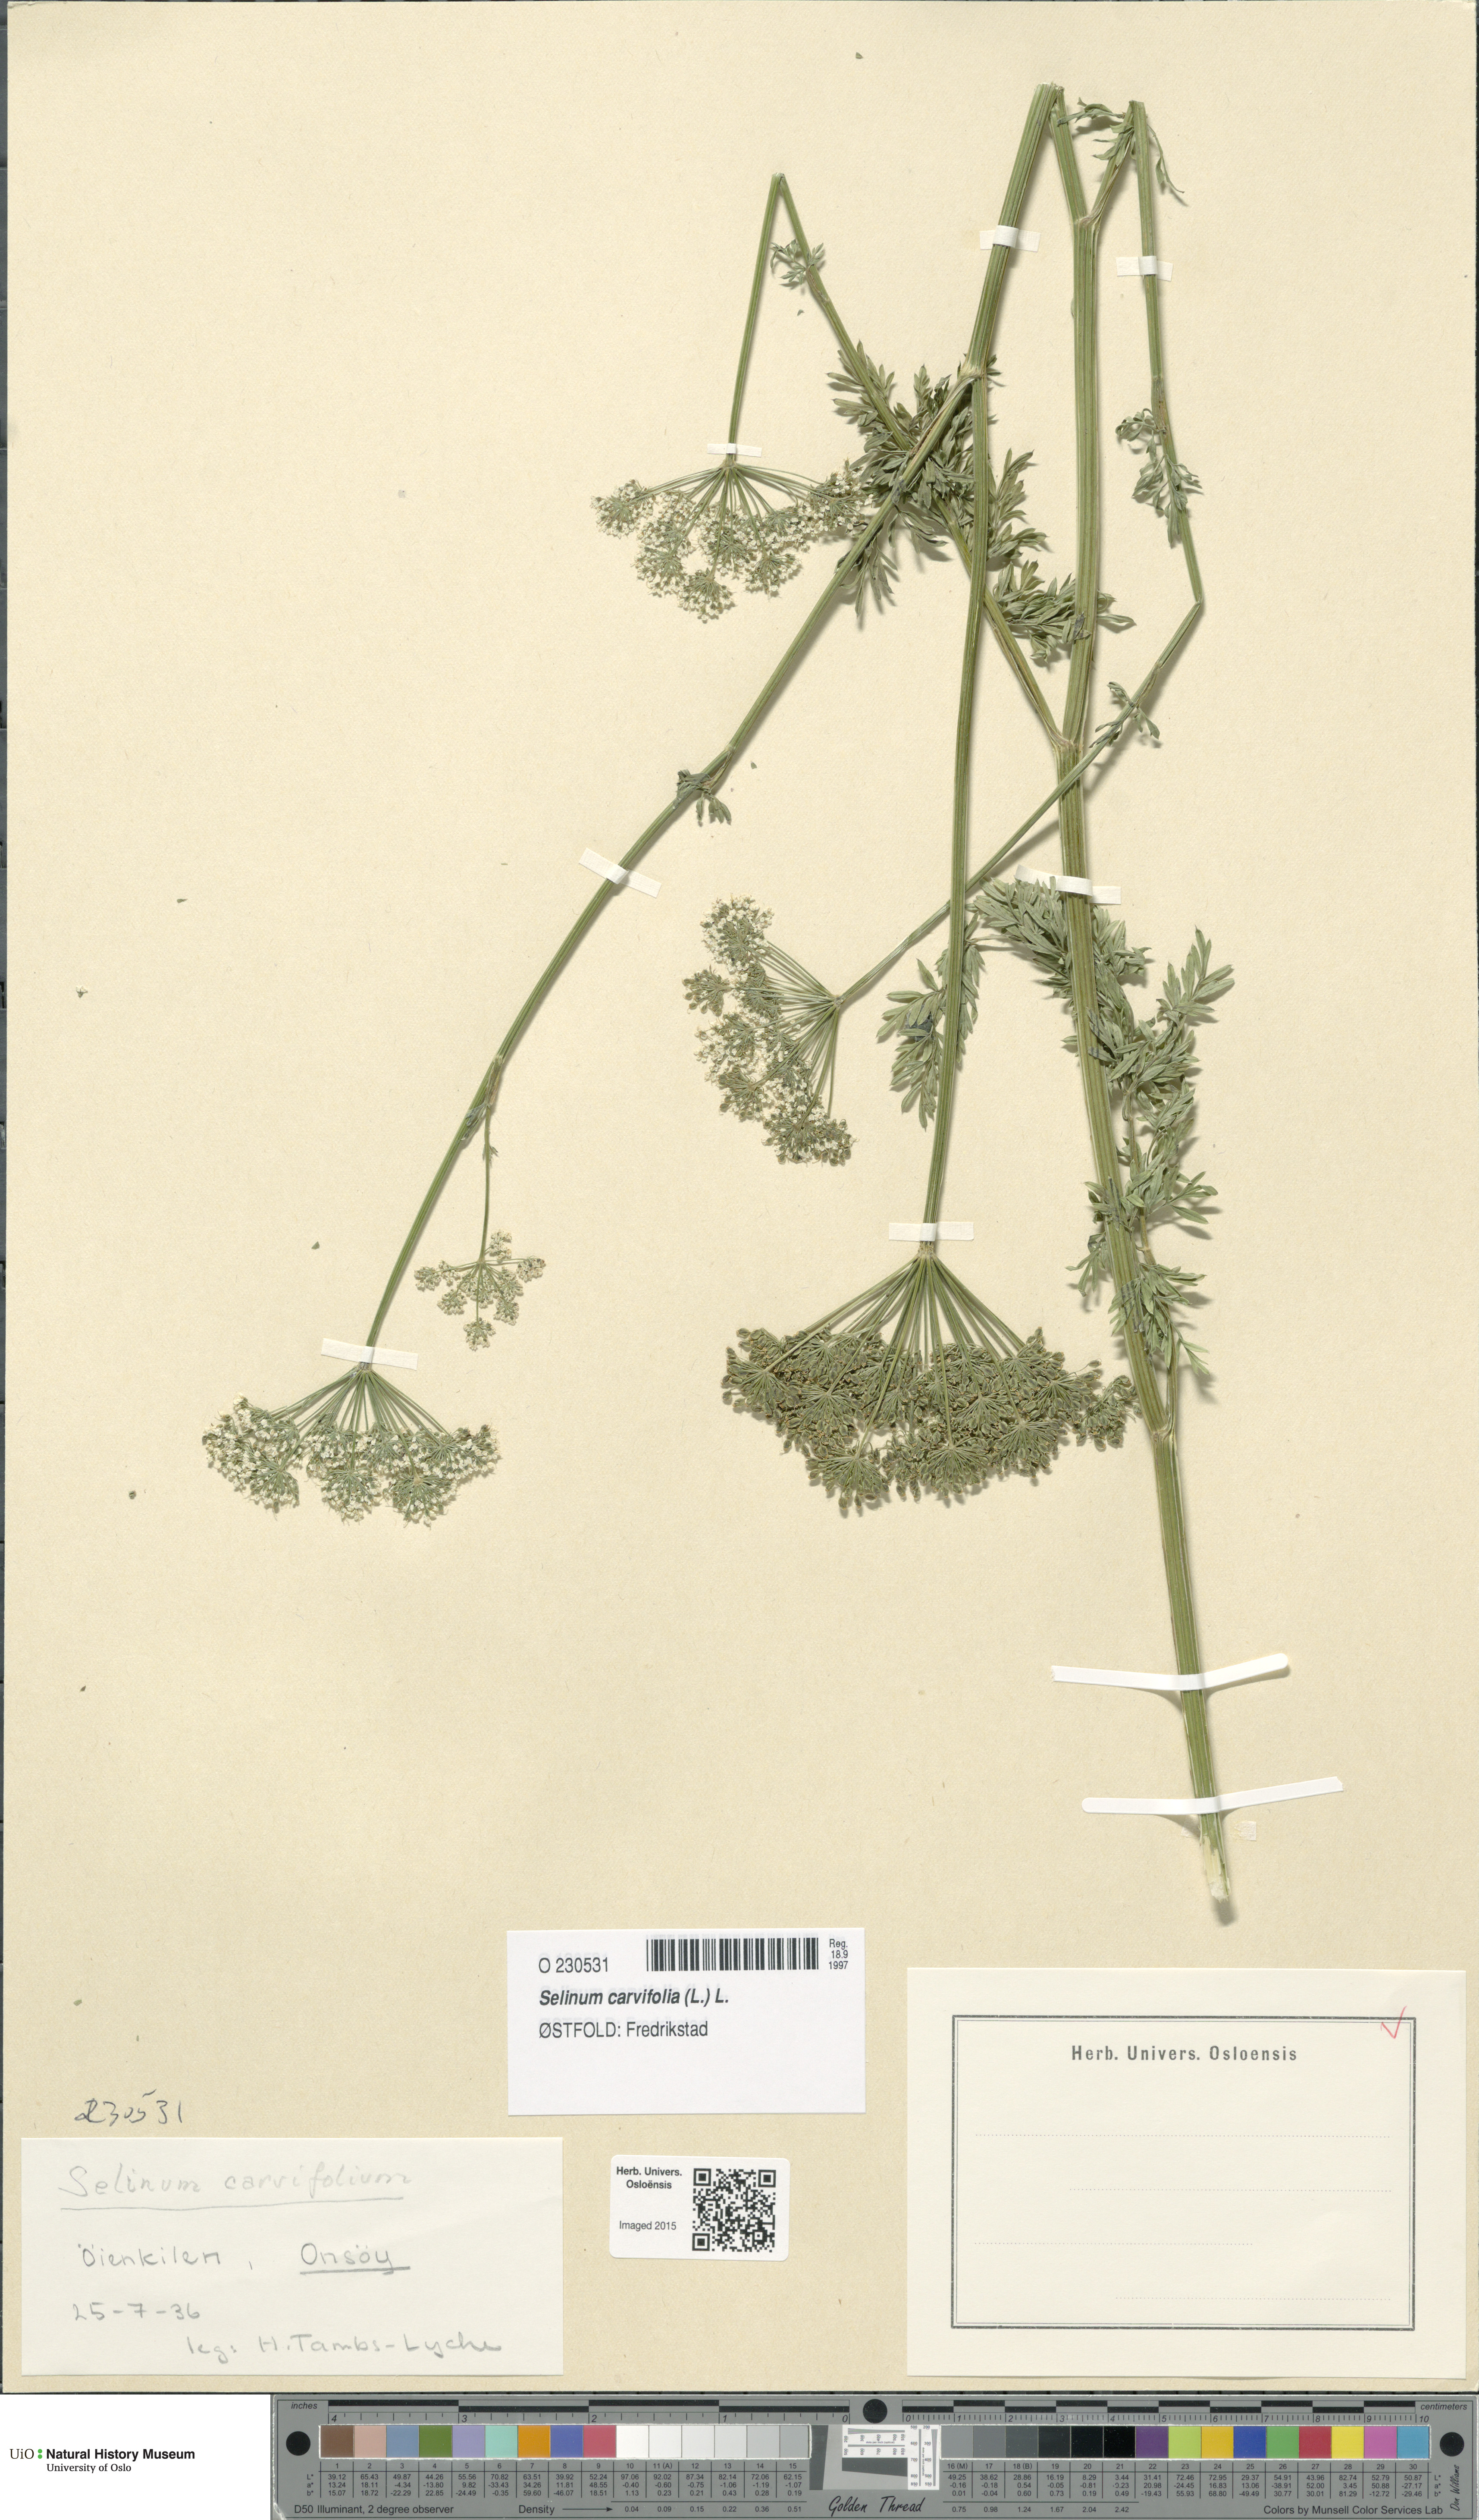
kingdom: Plantae
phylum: Tracheophyta
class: Magnoliopsida
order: Apiales
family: Apiaceae
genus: Selinum
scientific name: Selinum carvifolia
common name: Cambridge milk-parsley
